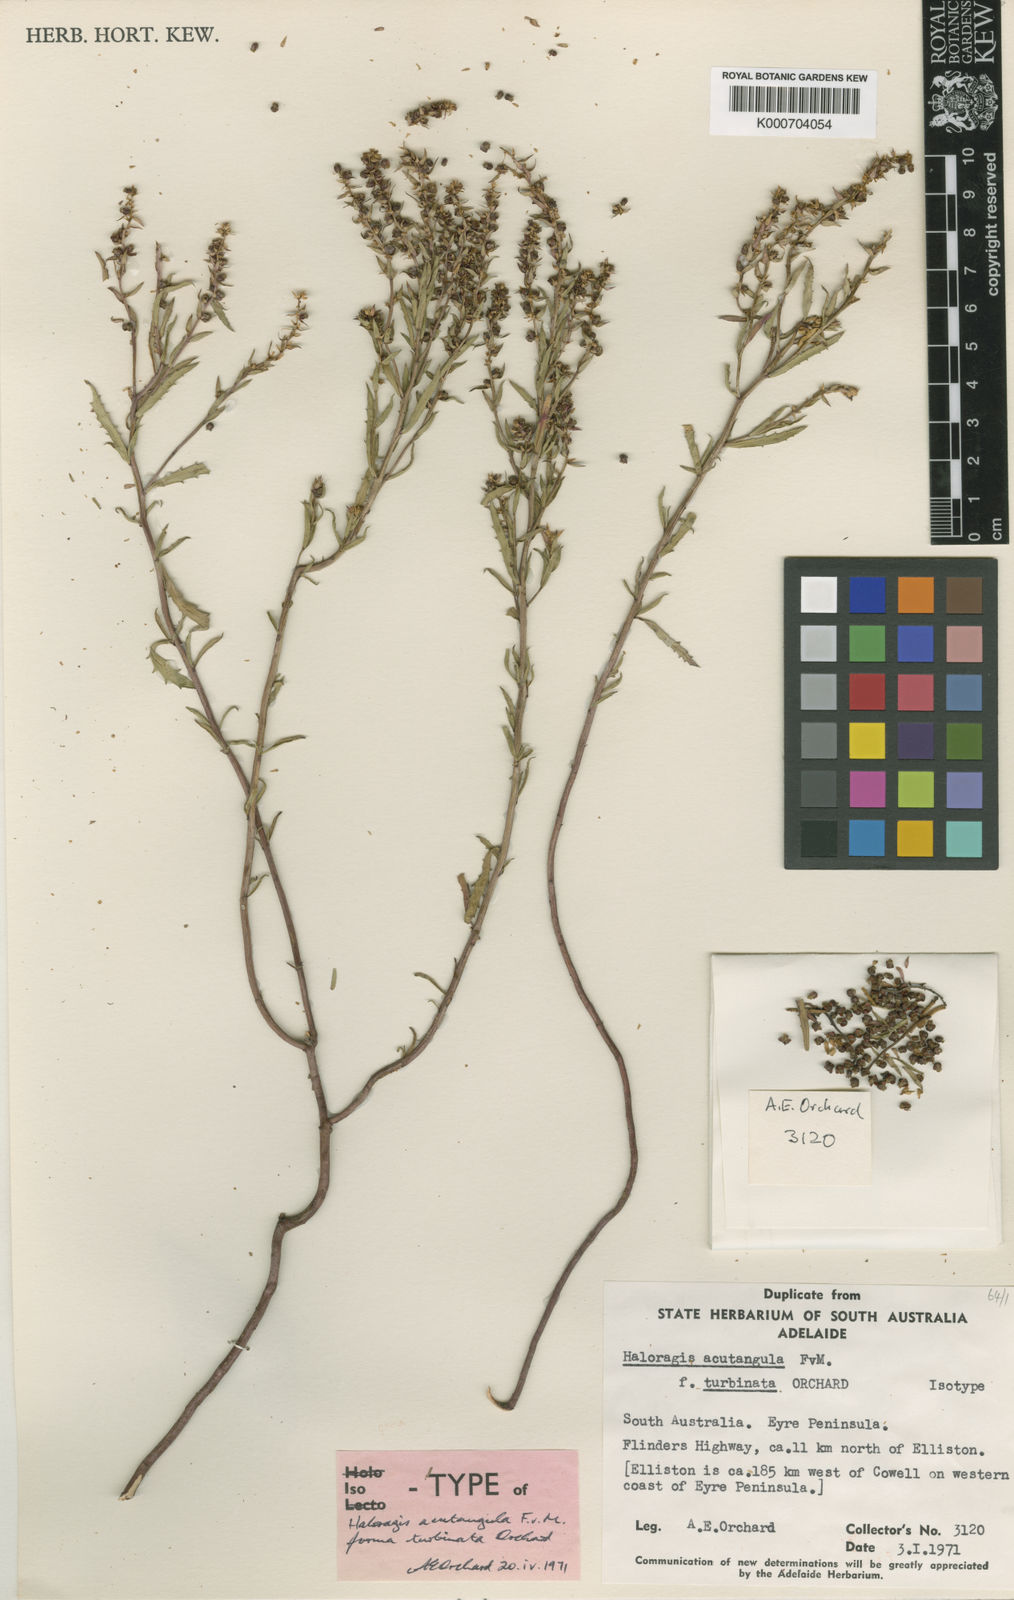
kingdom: Plantae
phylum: Tracheophyta
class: Magnoliopsida
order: Saxifragales
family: Haloragaceae
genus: Haloragis
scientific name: Haloragis acutangula
